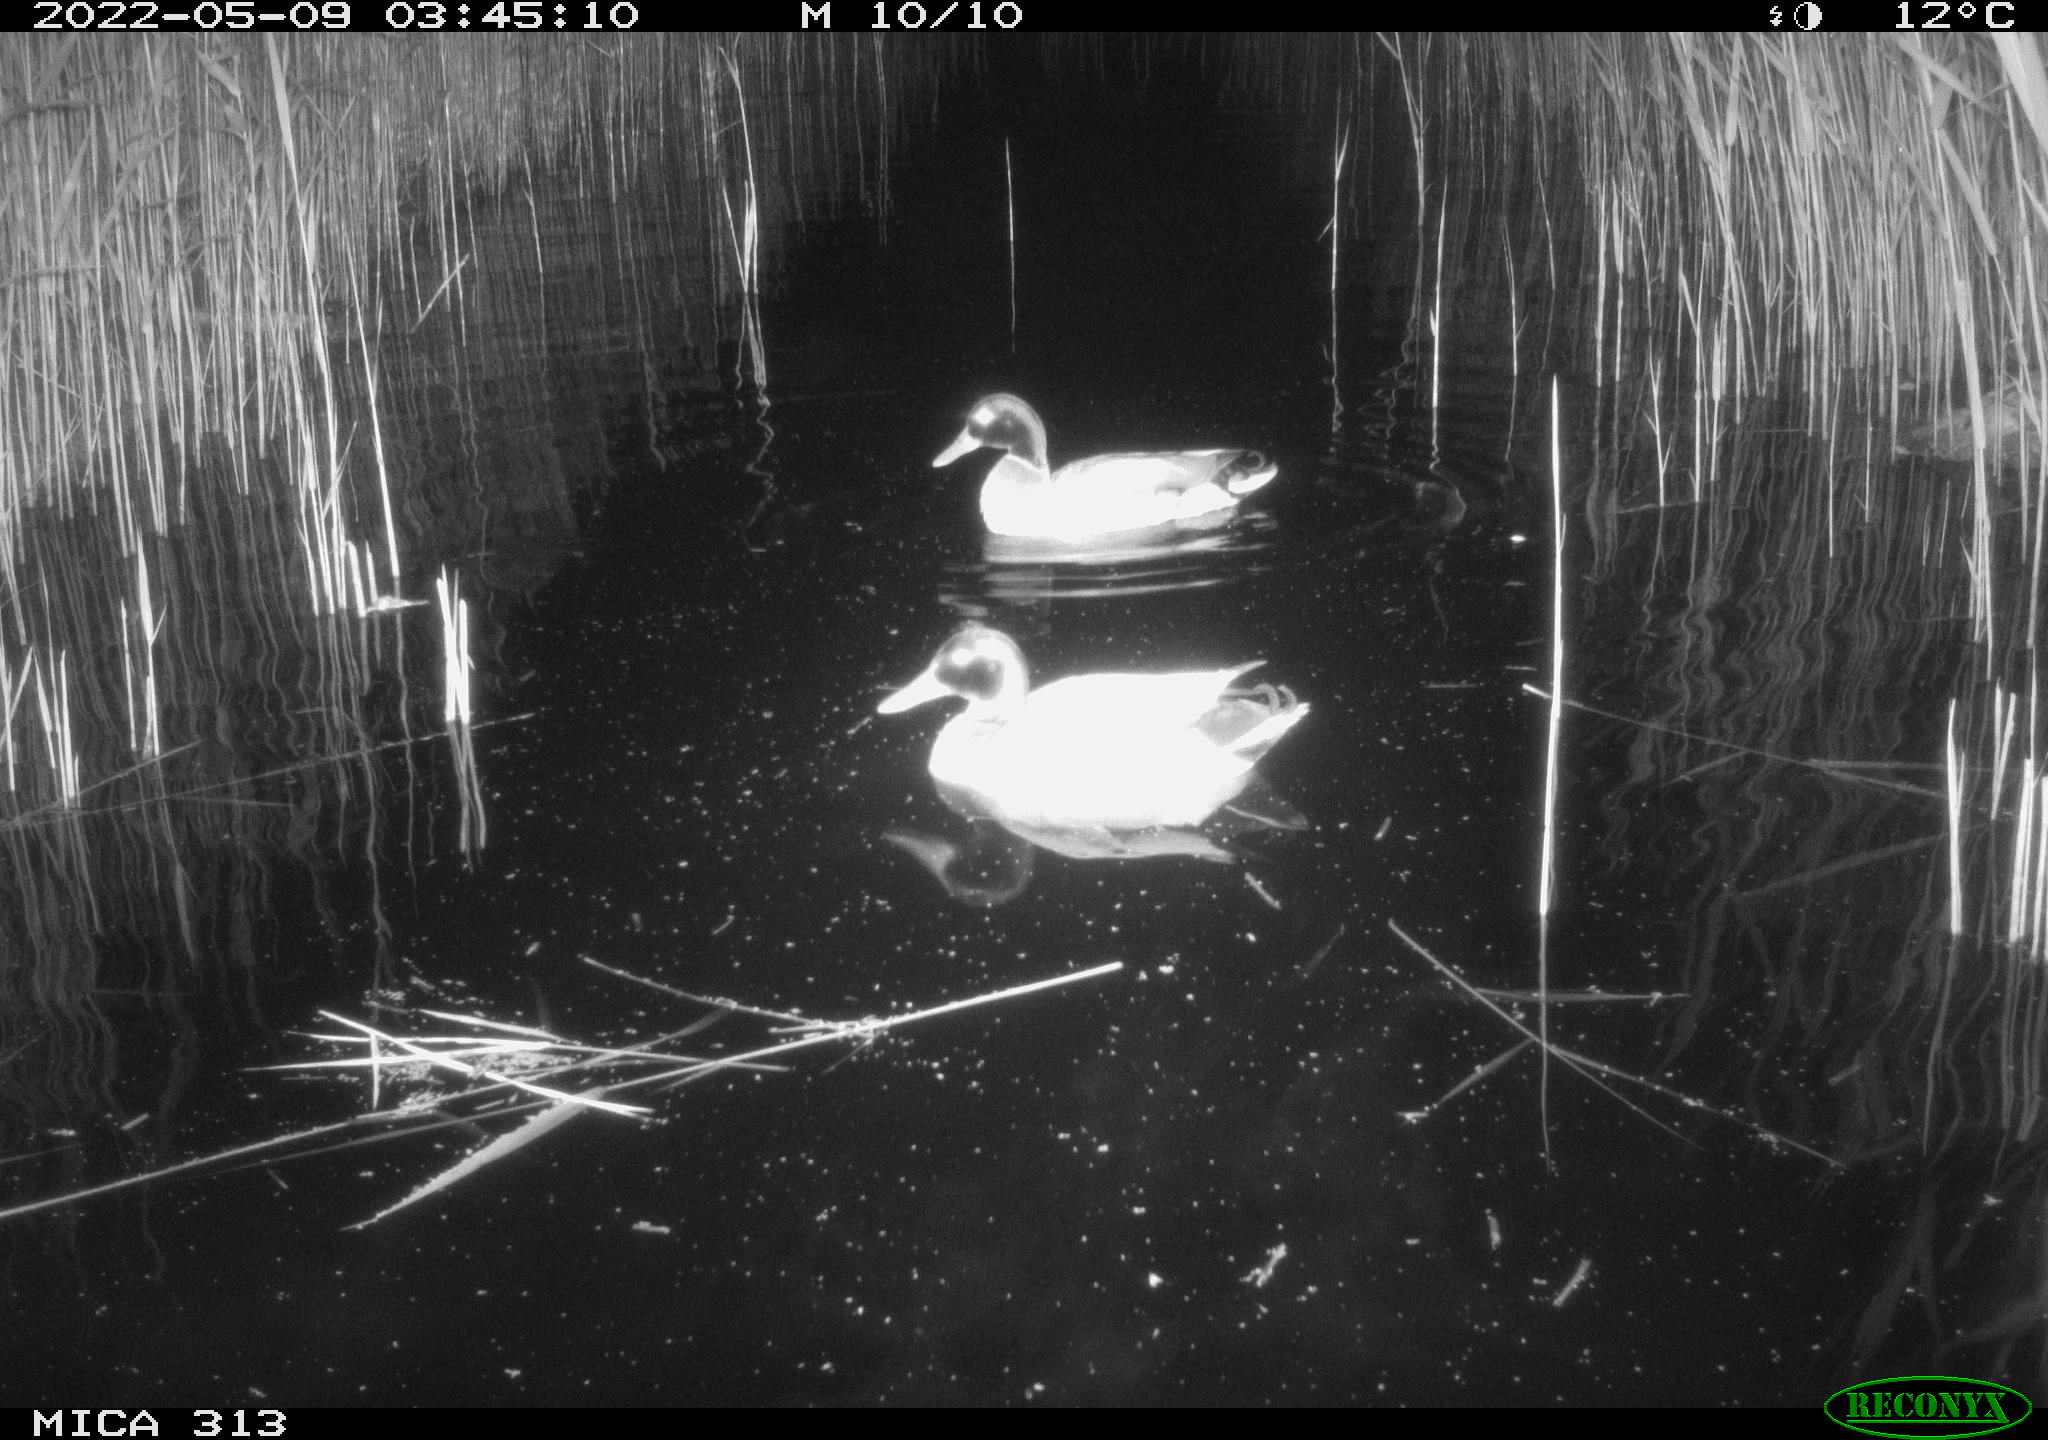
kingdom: Animalia
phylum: Chordata
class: Aves
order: Anseriformes
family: Anatidae
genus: Anas
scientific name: Anas platyrhynchos
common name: Mallard
